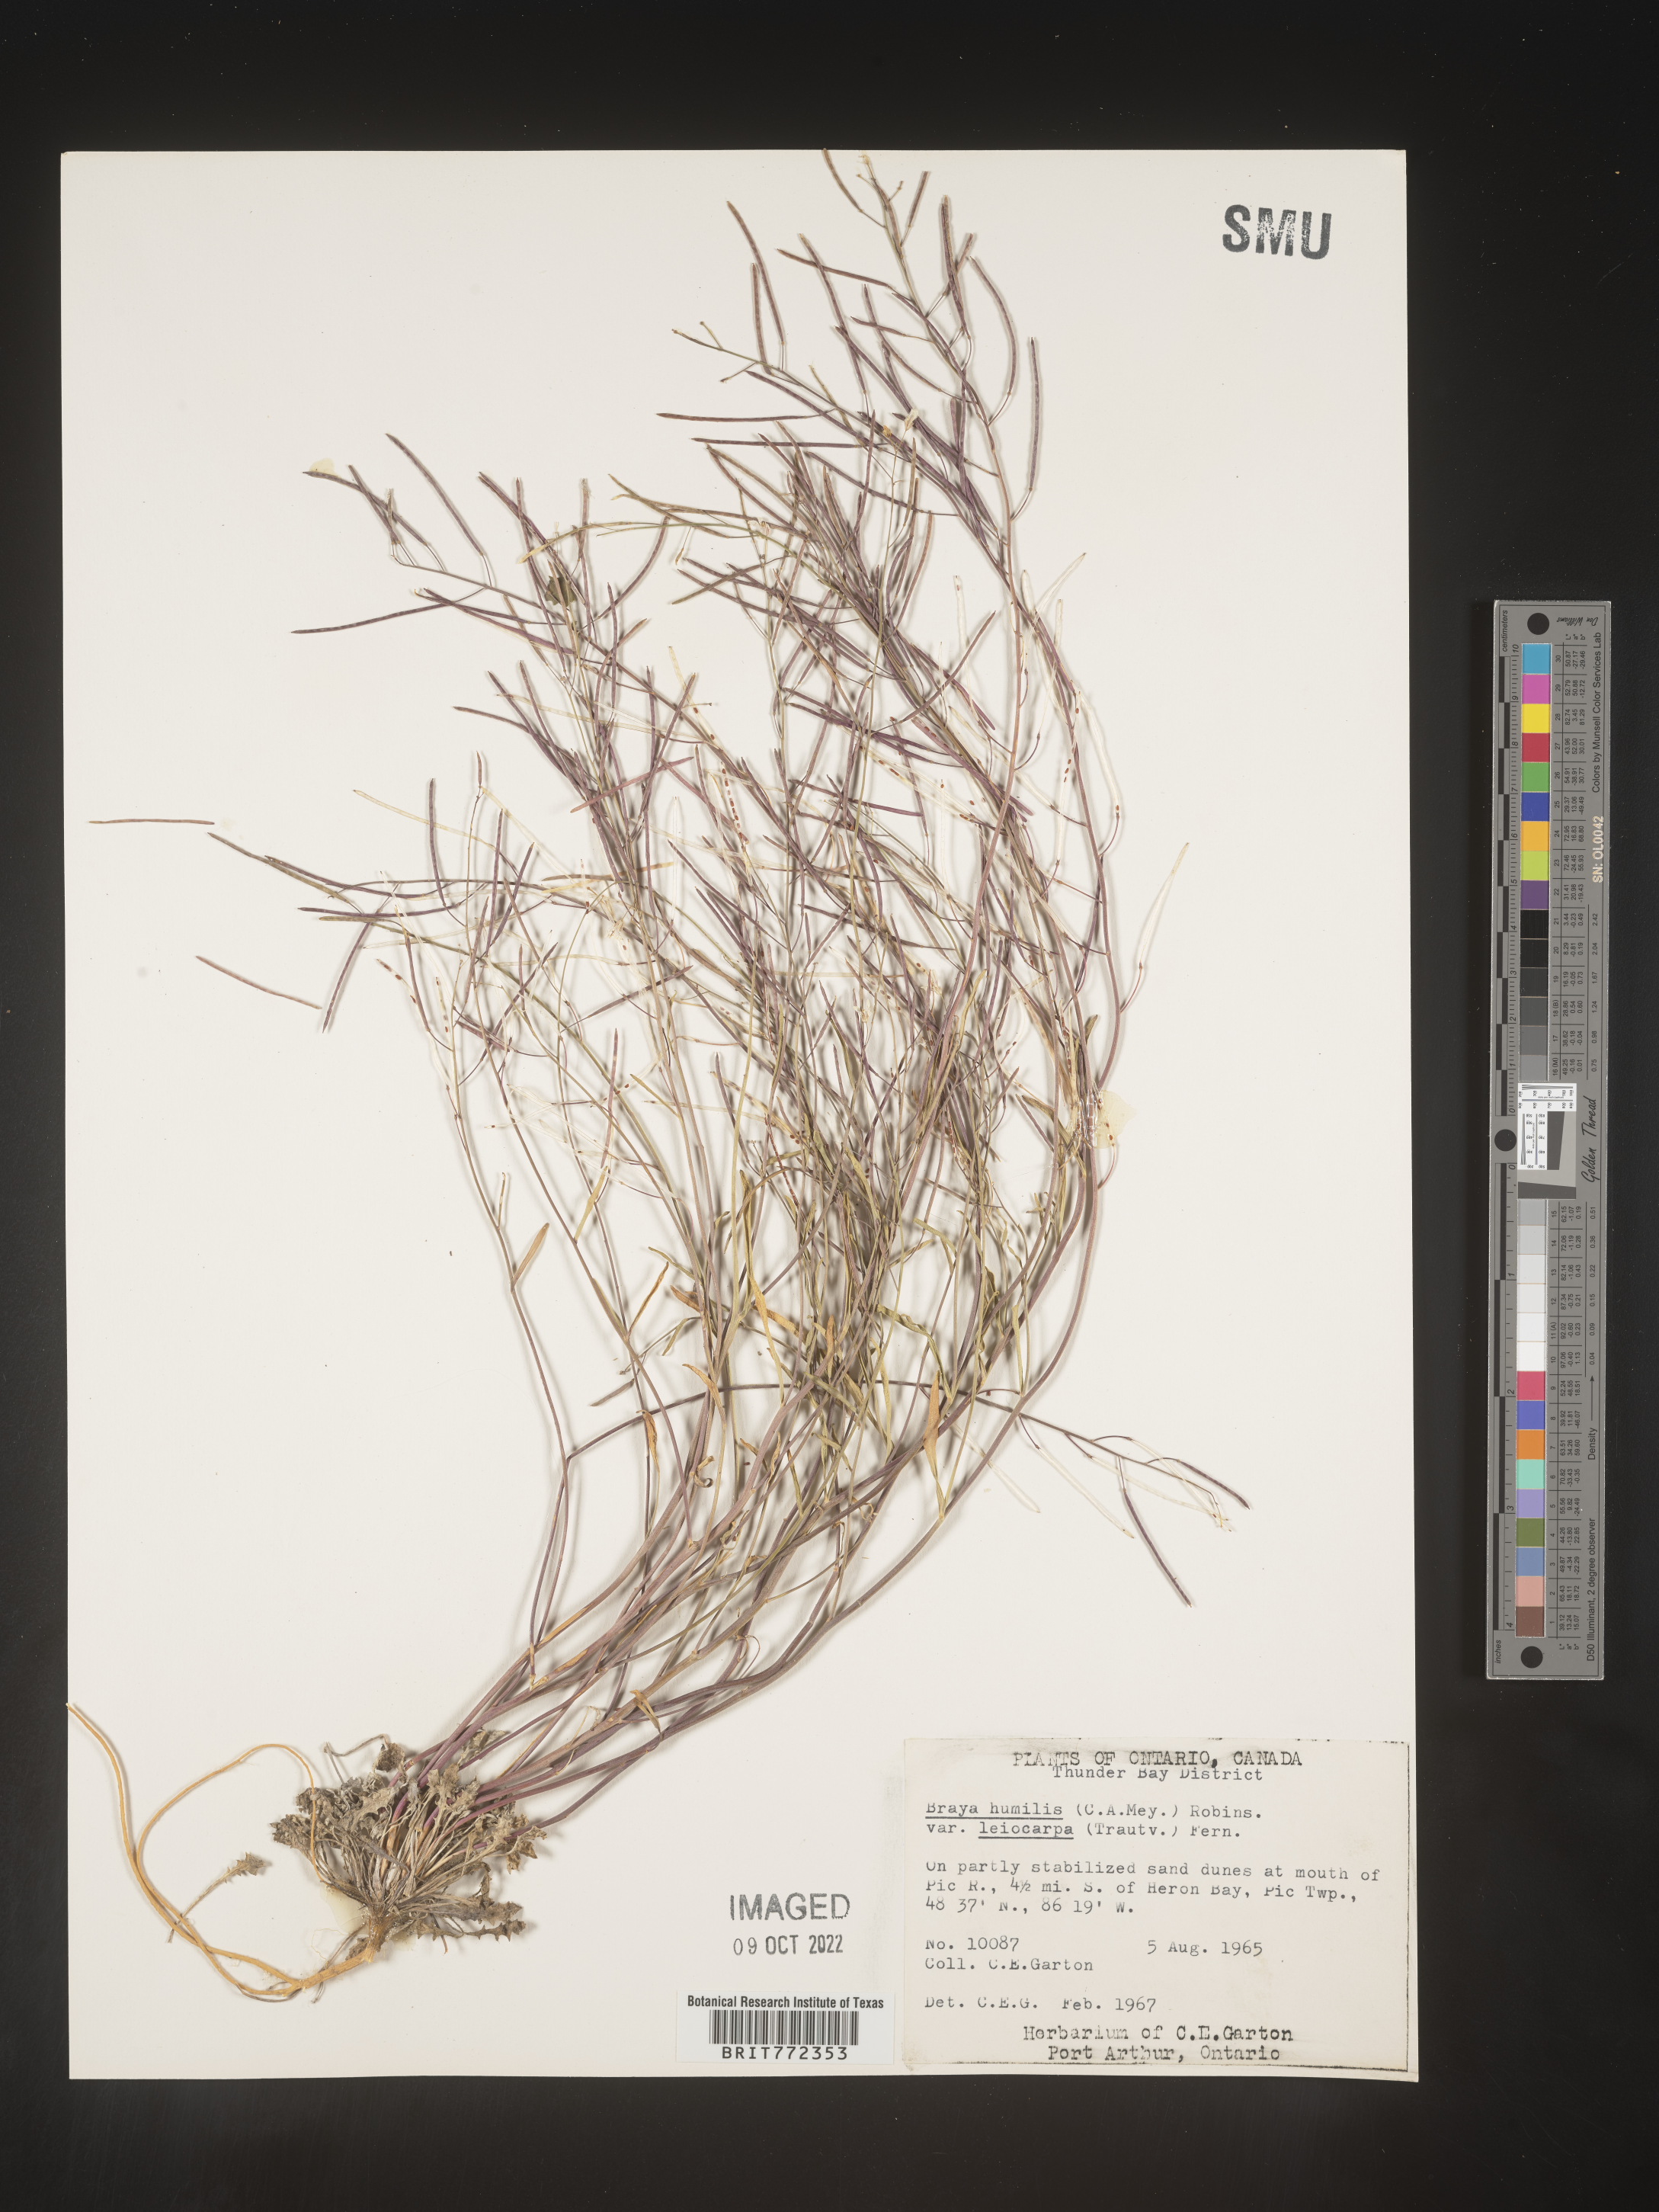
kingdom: Plantae
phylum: Tracheophyta
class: Magnoliopsida
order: Brassicales
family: Brassicaceae
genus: Braya
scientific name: Braya
